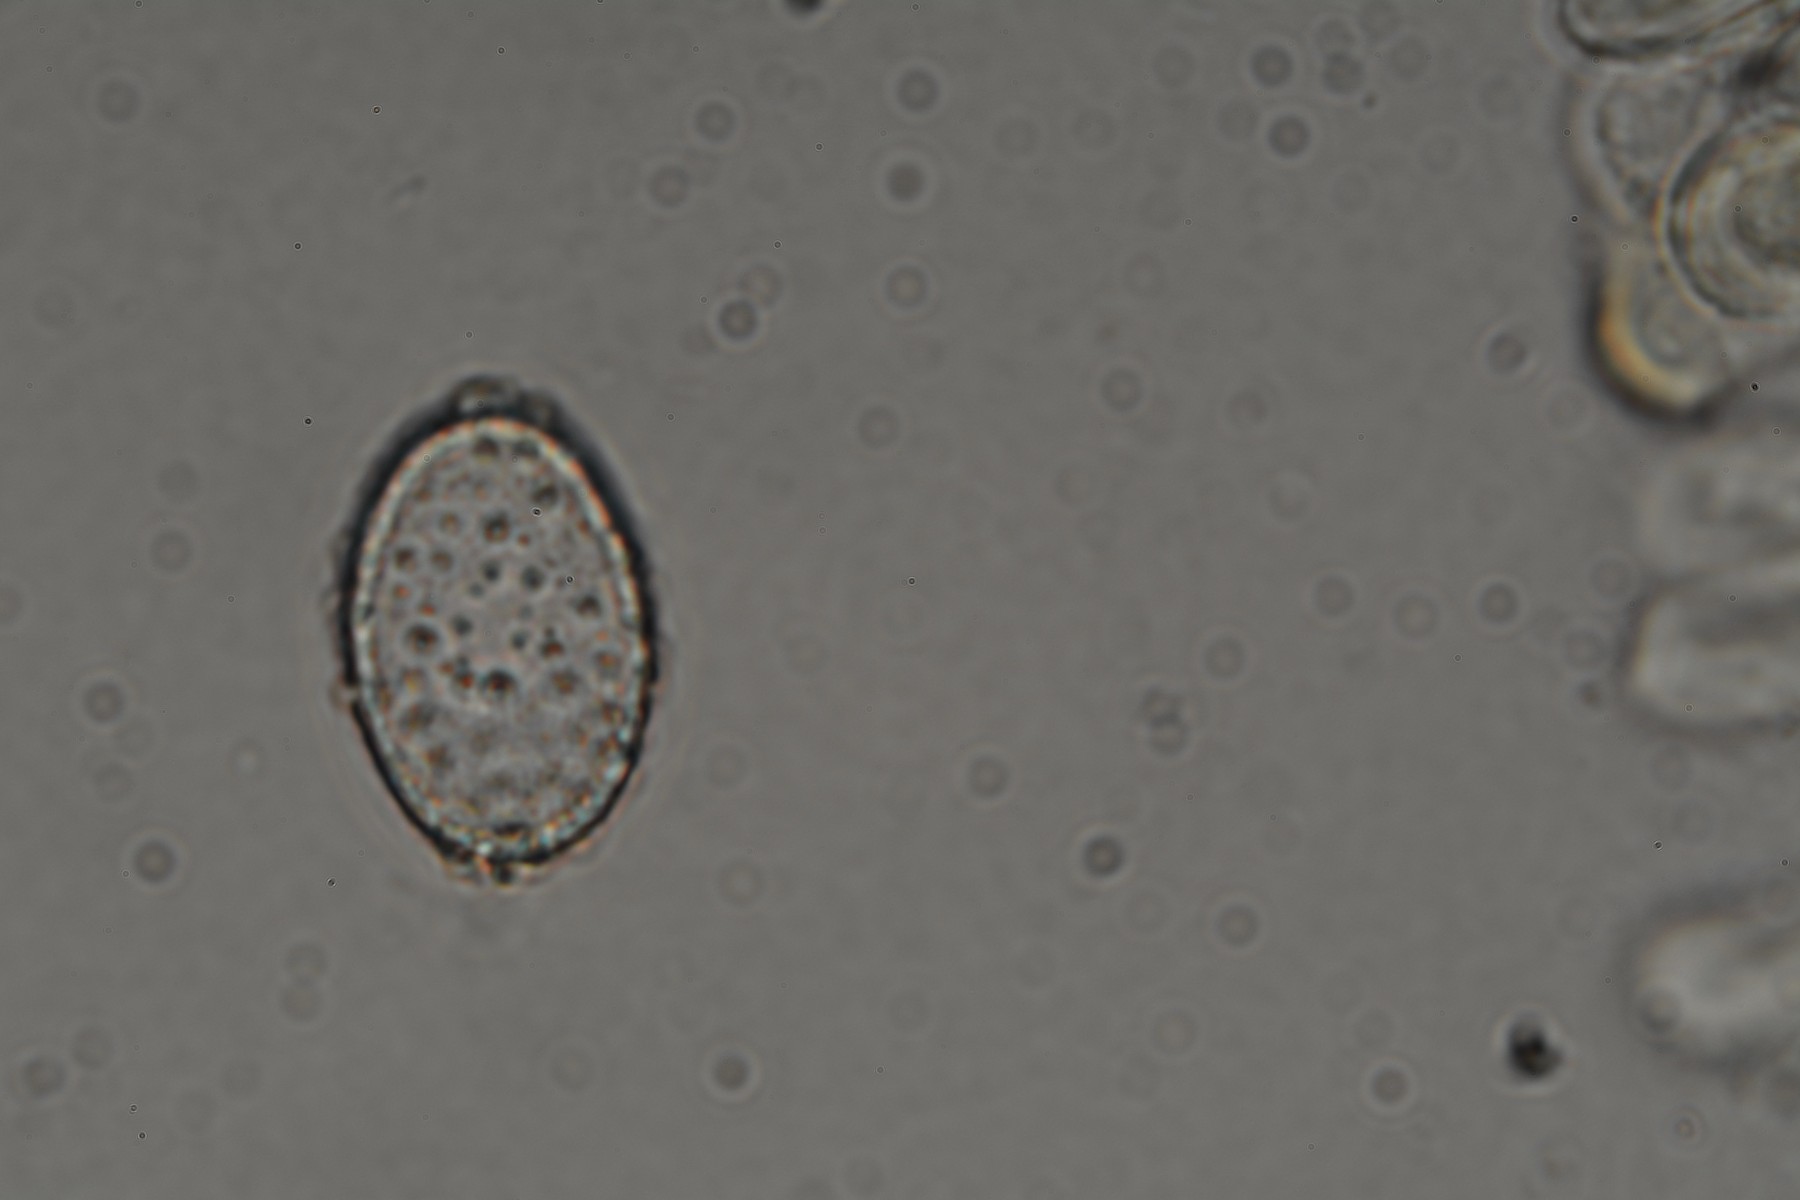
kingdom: Fungi
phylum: Ascomycota
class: Pezizomycetes
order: Pezizales
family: Pyronemataceae
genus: Humaria
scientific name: Humaria hemisphaerica
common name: halvkugleformet børstebæger
